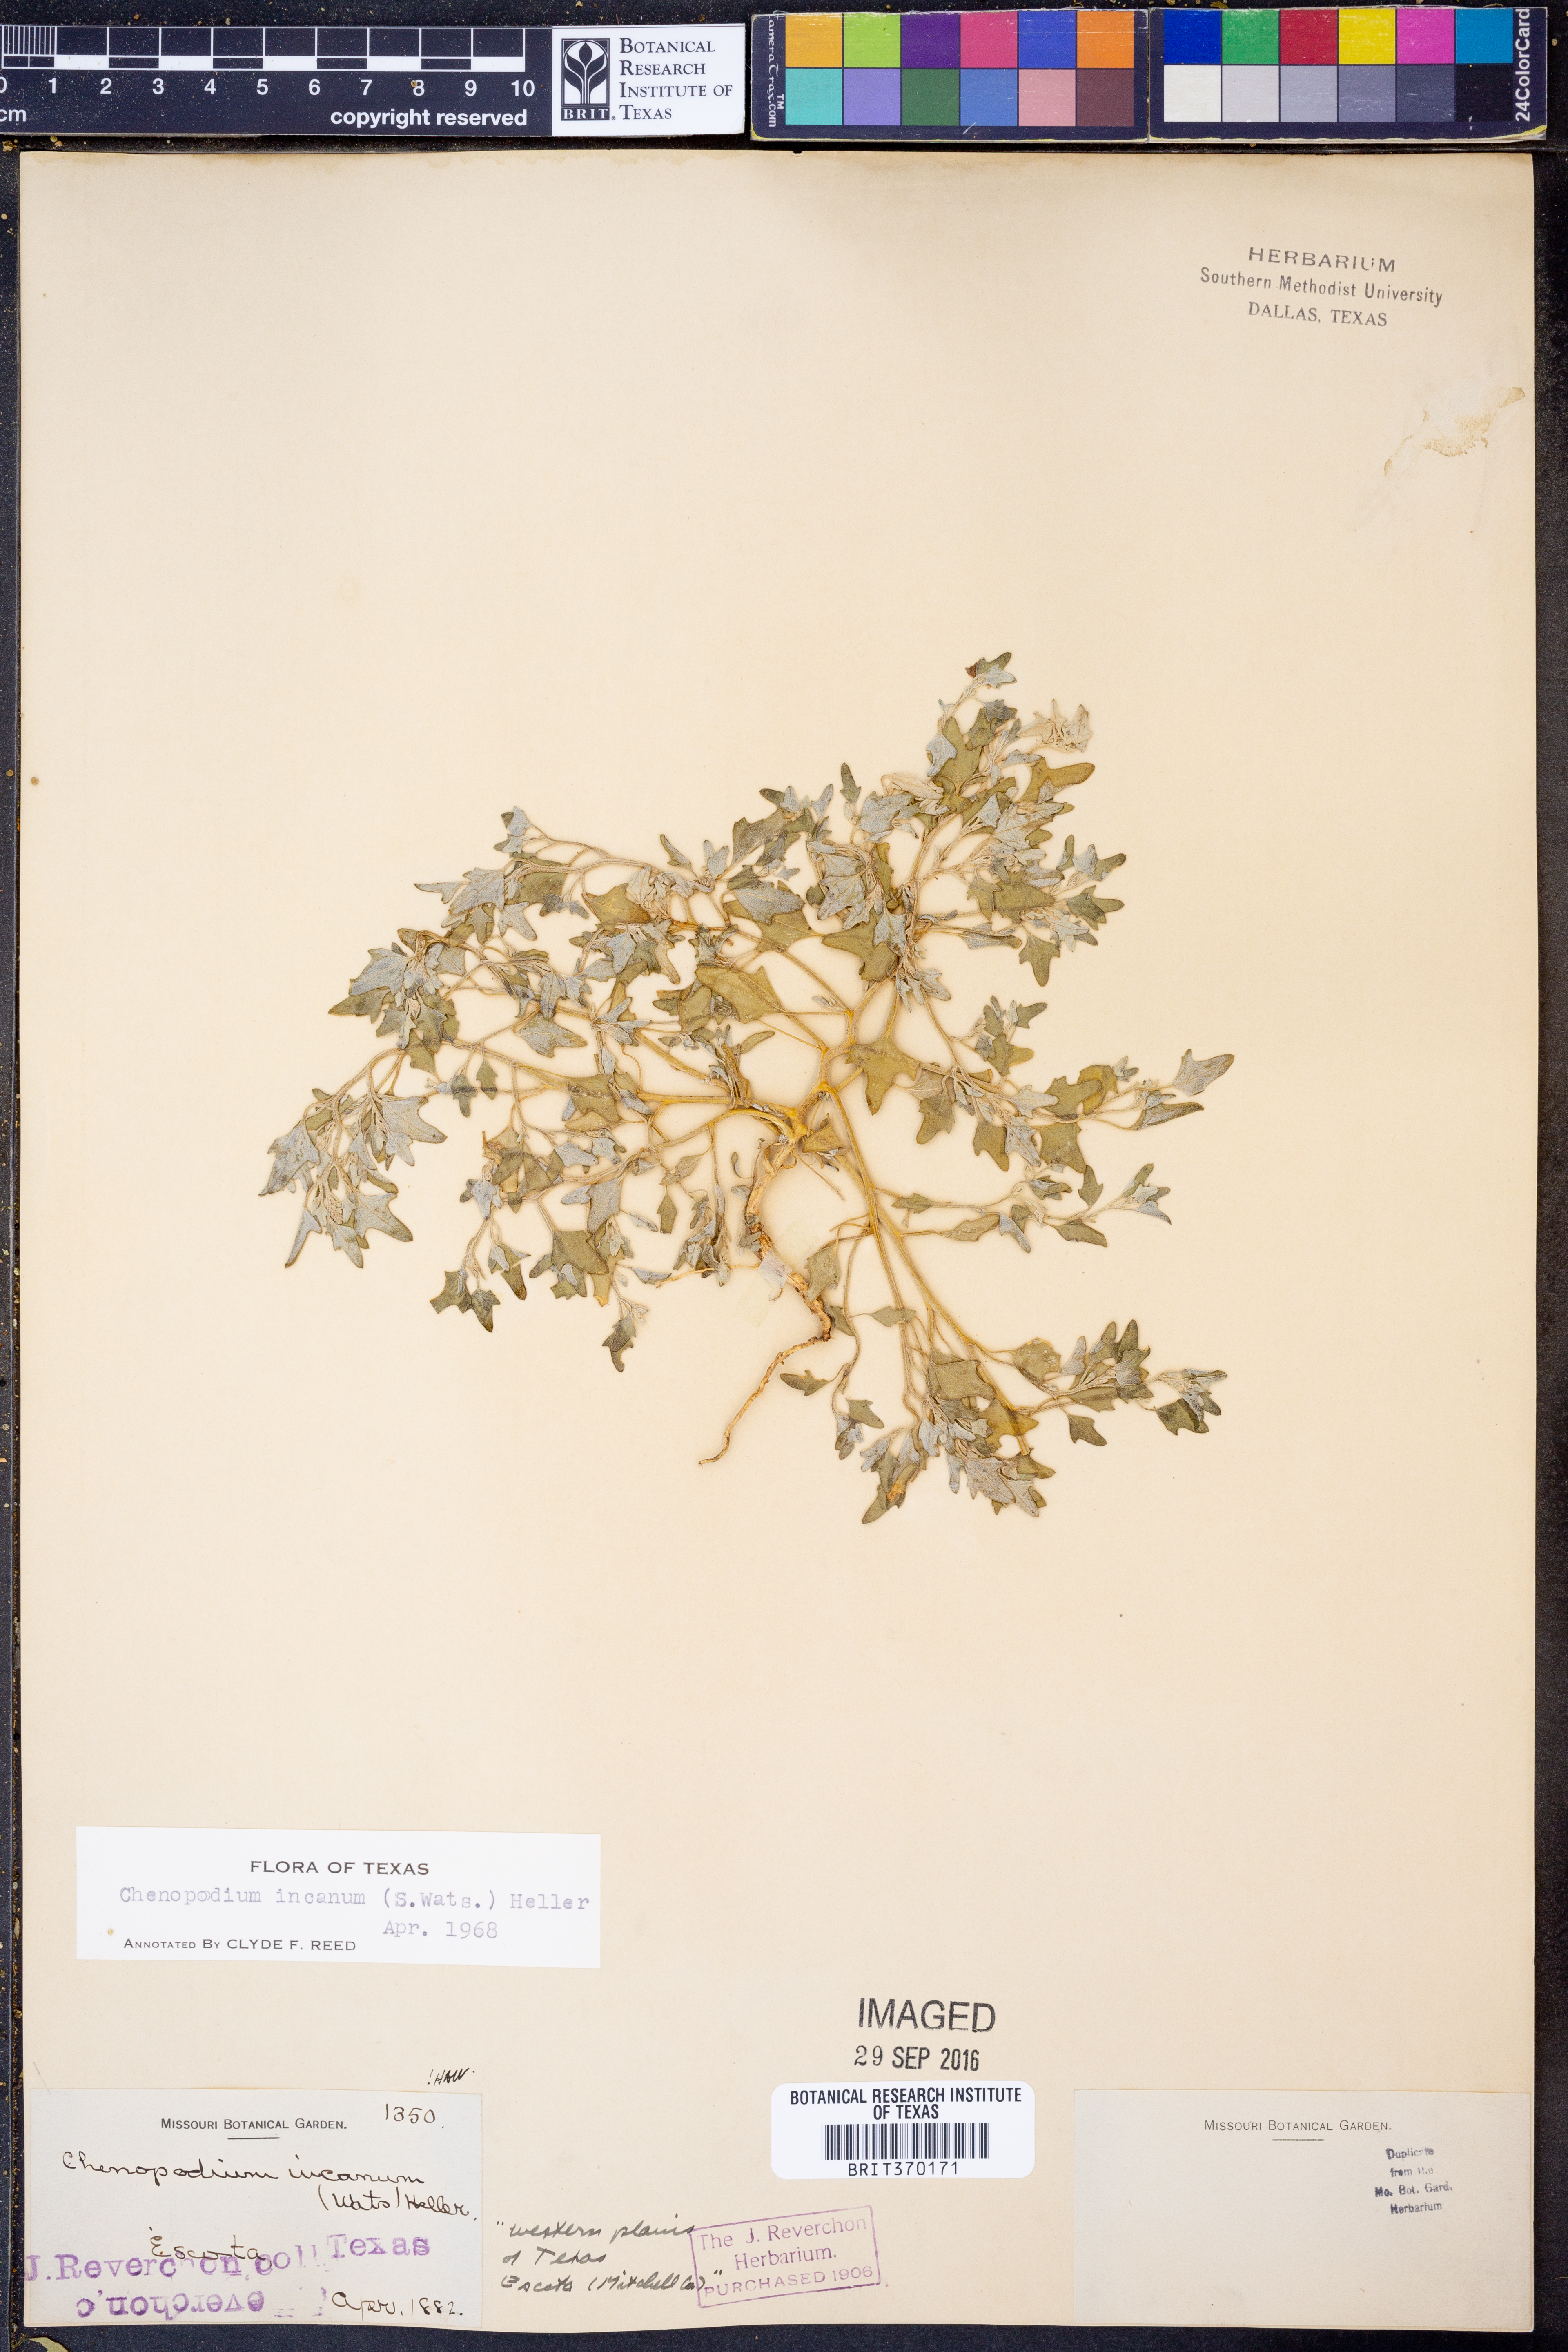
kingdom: Plantae
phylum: Tracheophyta
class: Magnoliopsida
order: Caryophyllales
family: Amaranthaceae
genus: Chenopodium
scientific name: Chenopodium incanum
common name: Hoary goosefoot
